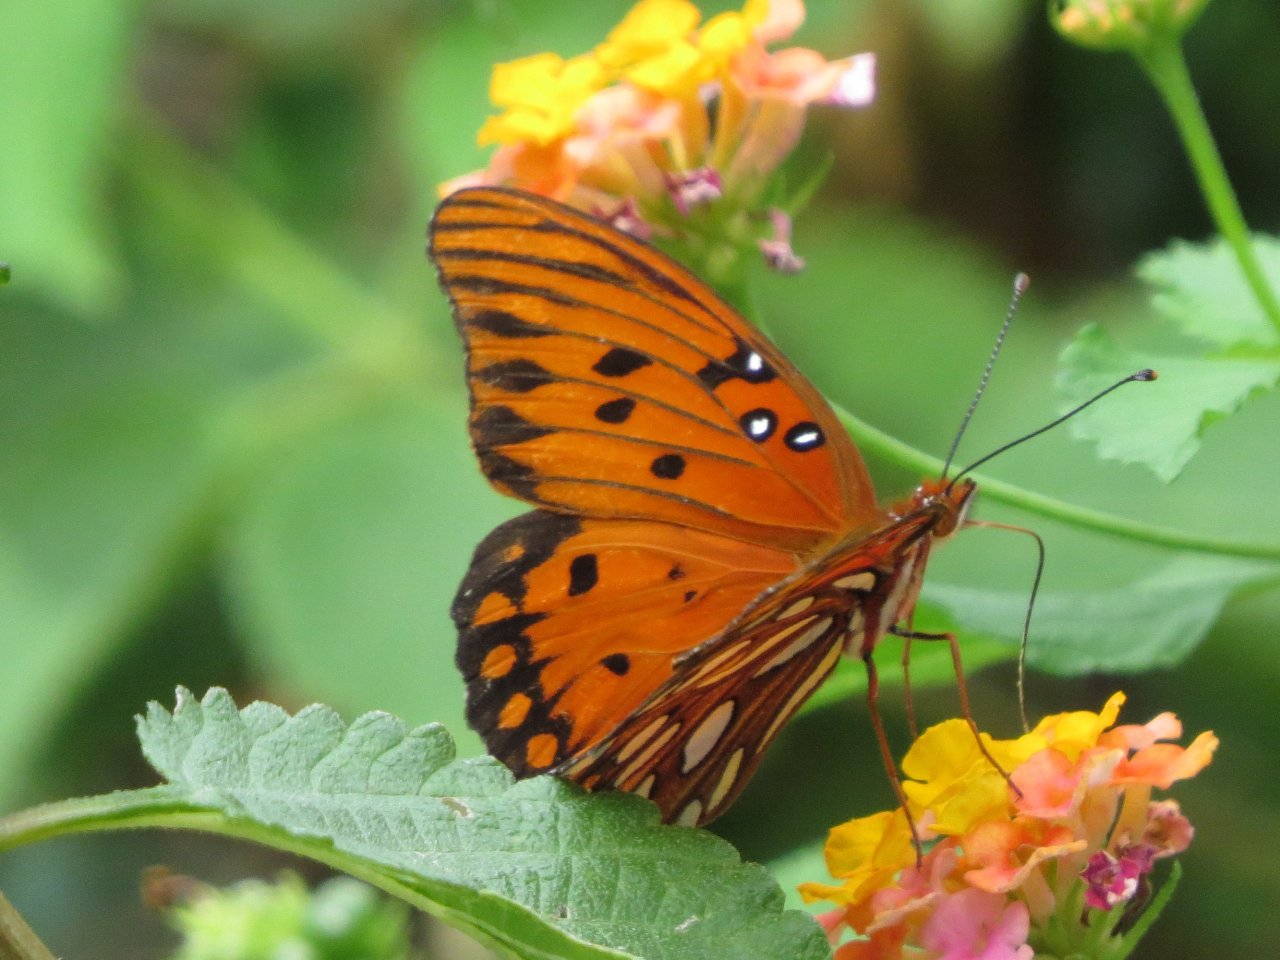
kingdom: Animalia
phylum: Arthropoda
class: Insecta
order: Lepidoptera
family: Nymphalidae
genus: Dione
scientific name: Dione vanillae
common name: Gulf Fritillary
